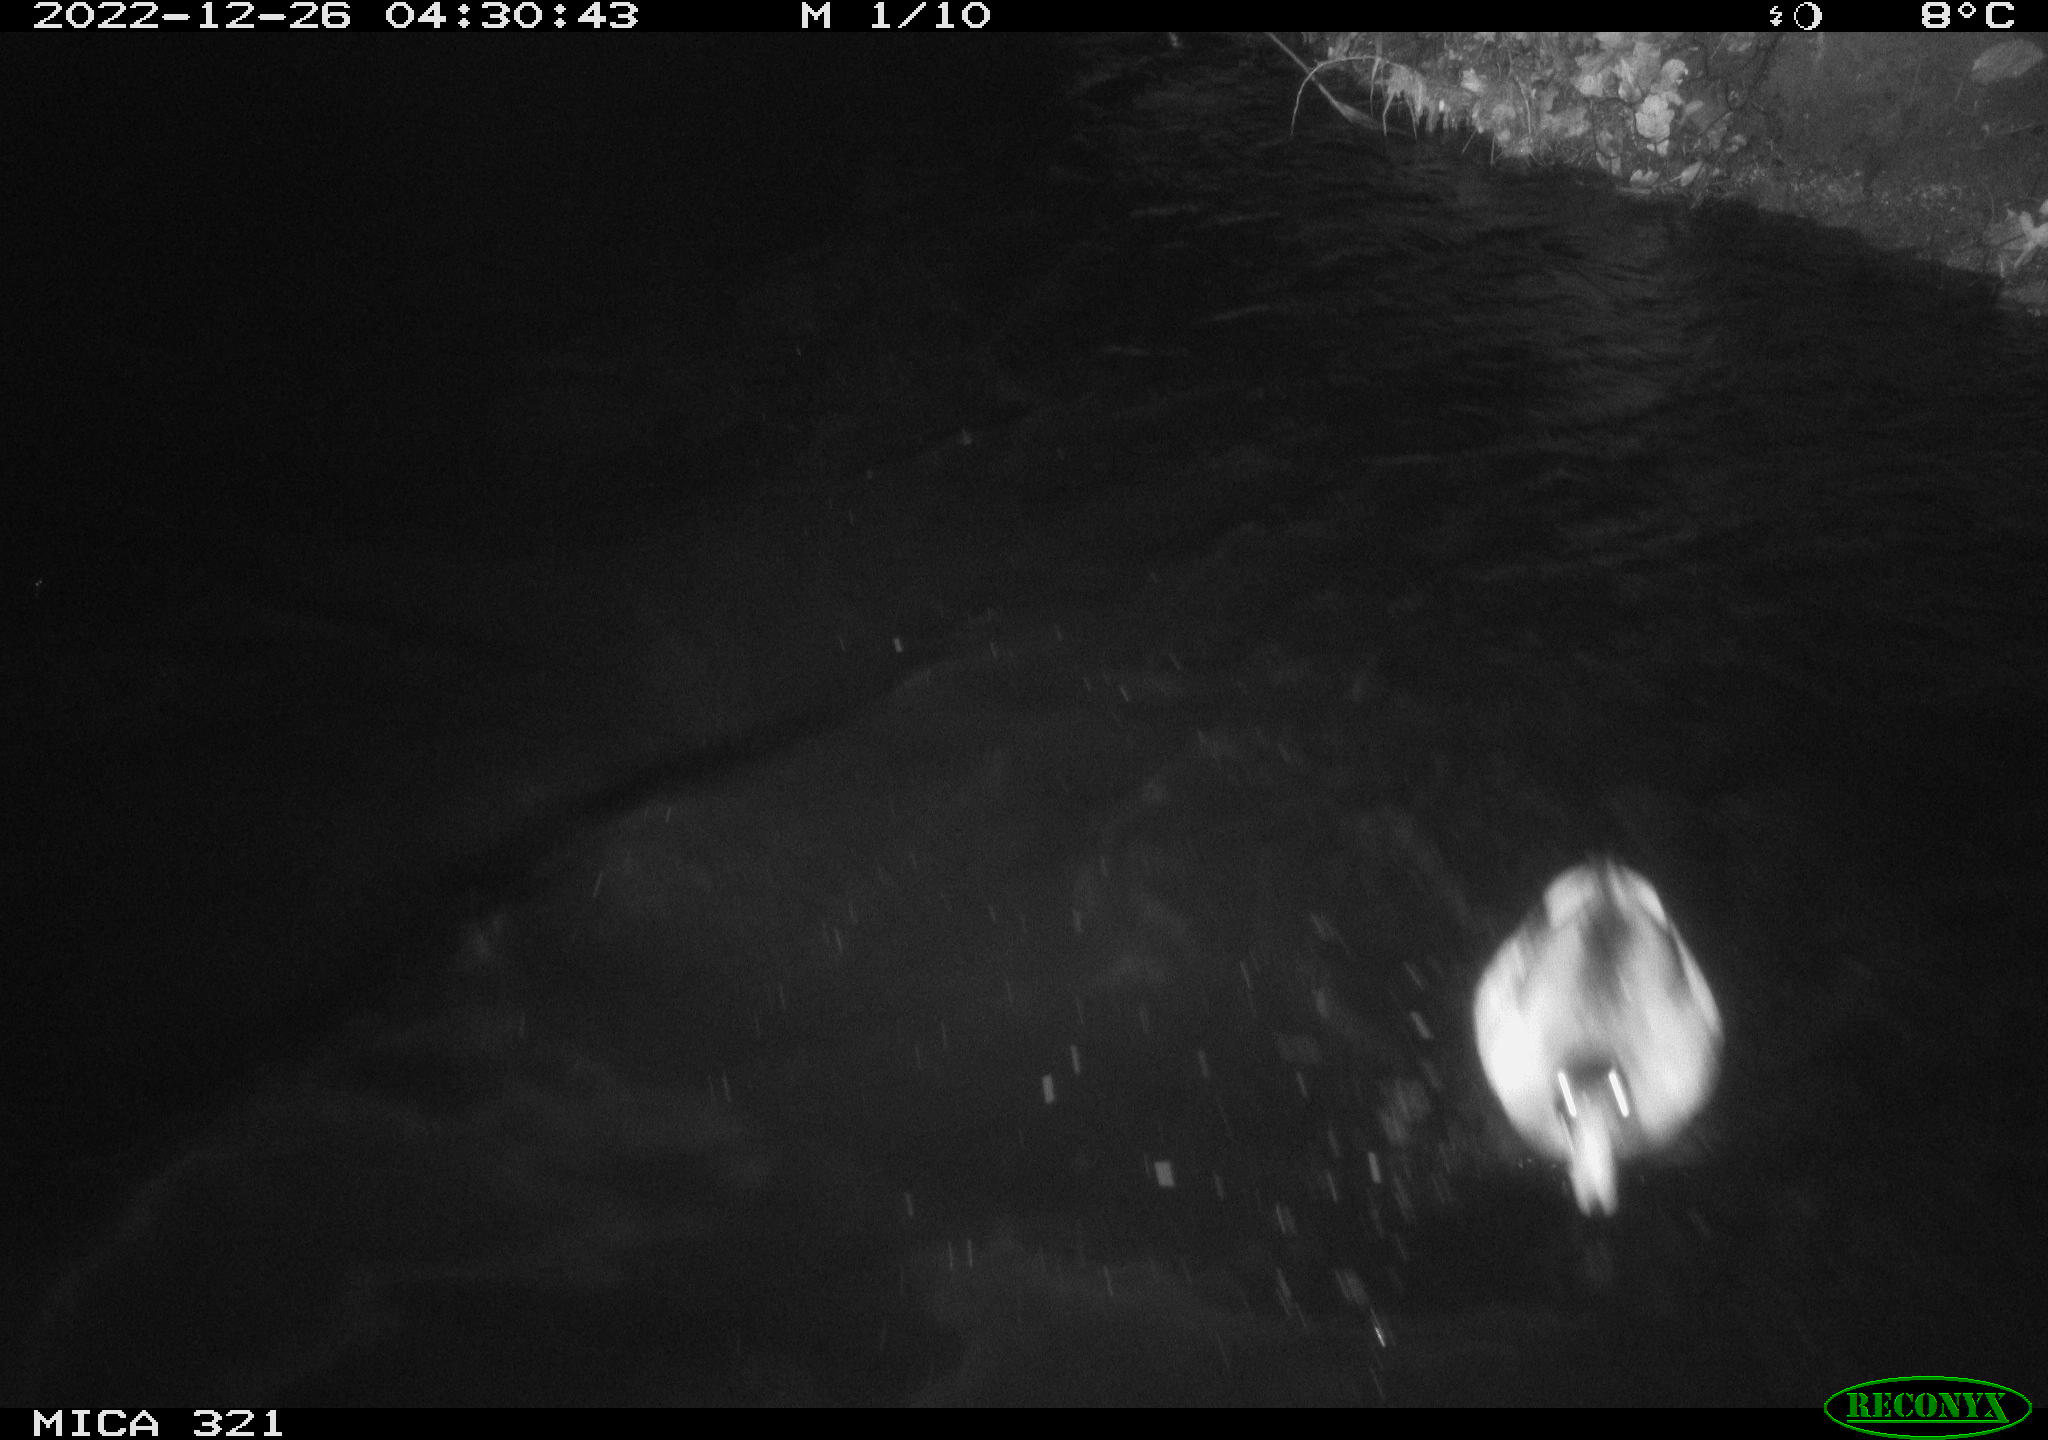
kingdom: Animalia
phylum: Chordata
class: Aves
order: Anseriformes
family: Anatidae
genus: Anas
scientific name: Anas
